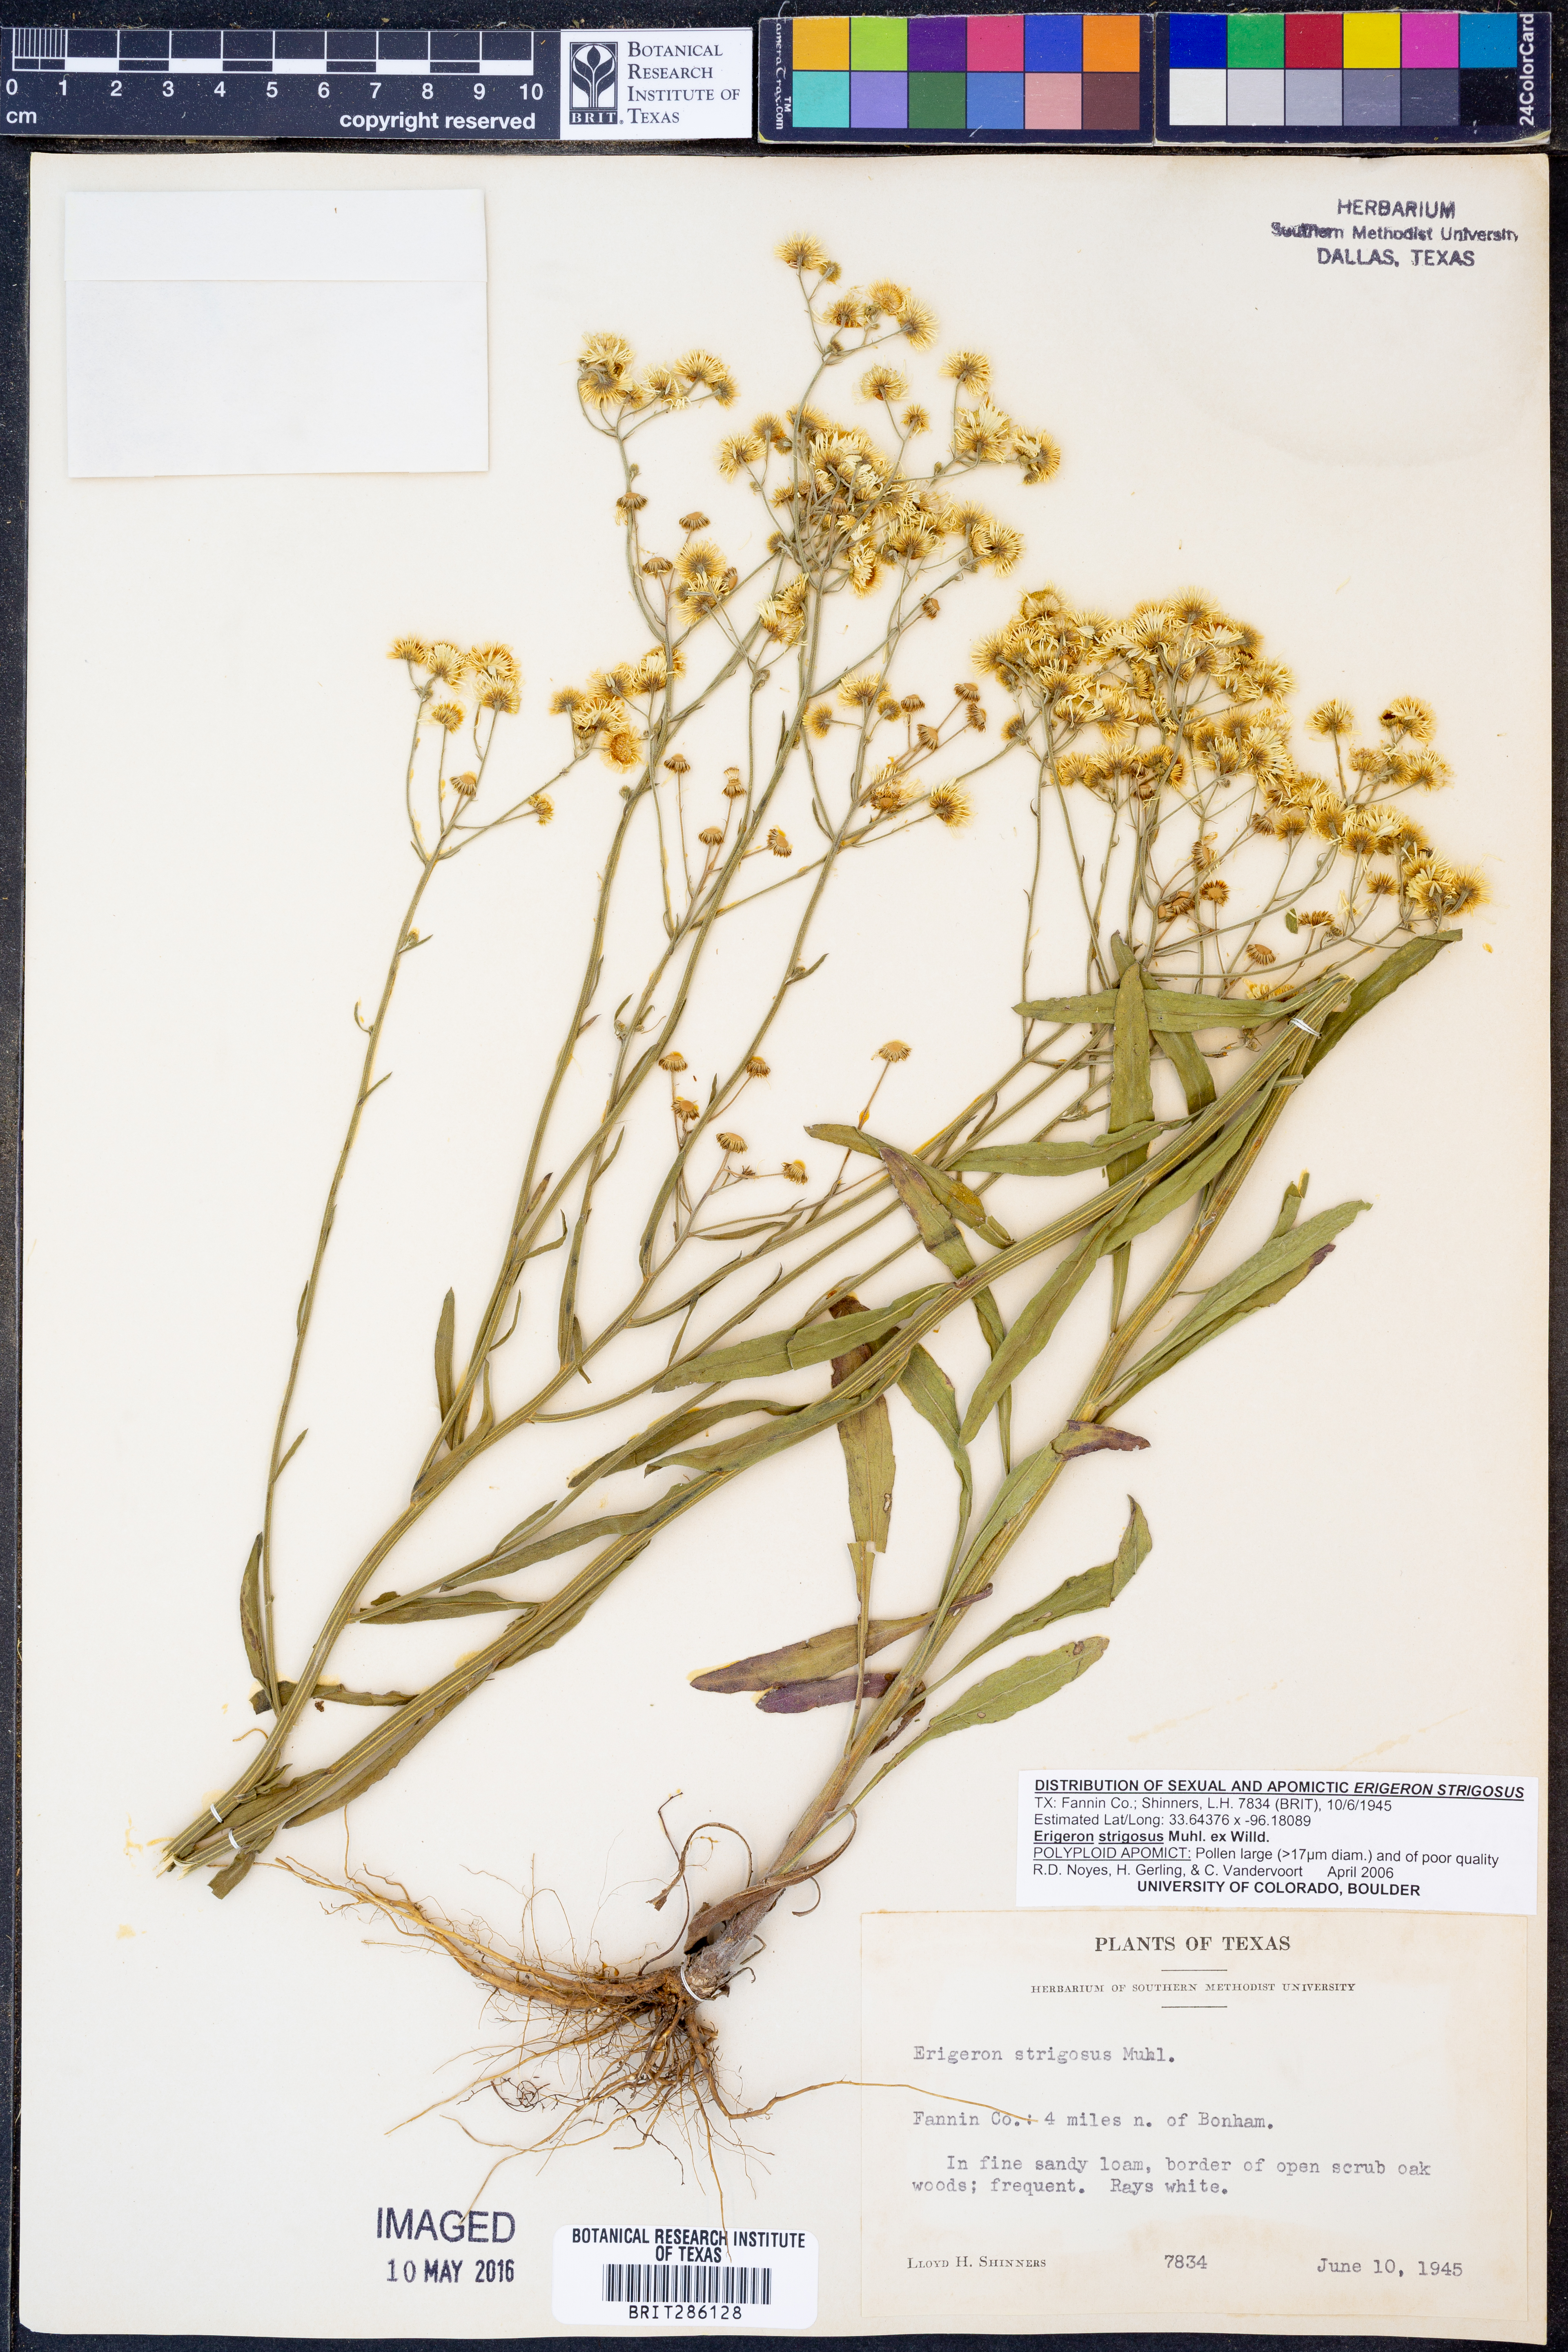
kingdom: Plantae
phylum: Tracheophyta
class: Magnoliopsida
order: Asterales
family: Asteraceae
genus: Erigeron
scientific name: Erigeron strigosus
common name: Common eastern fleabane
